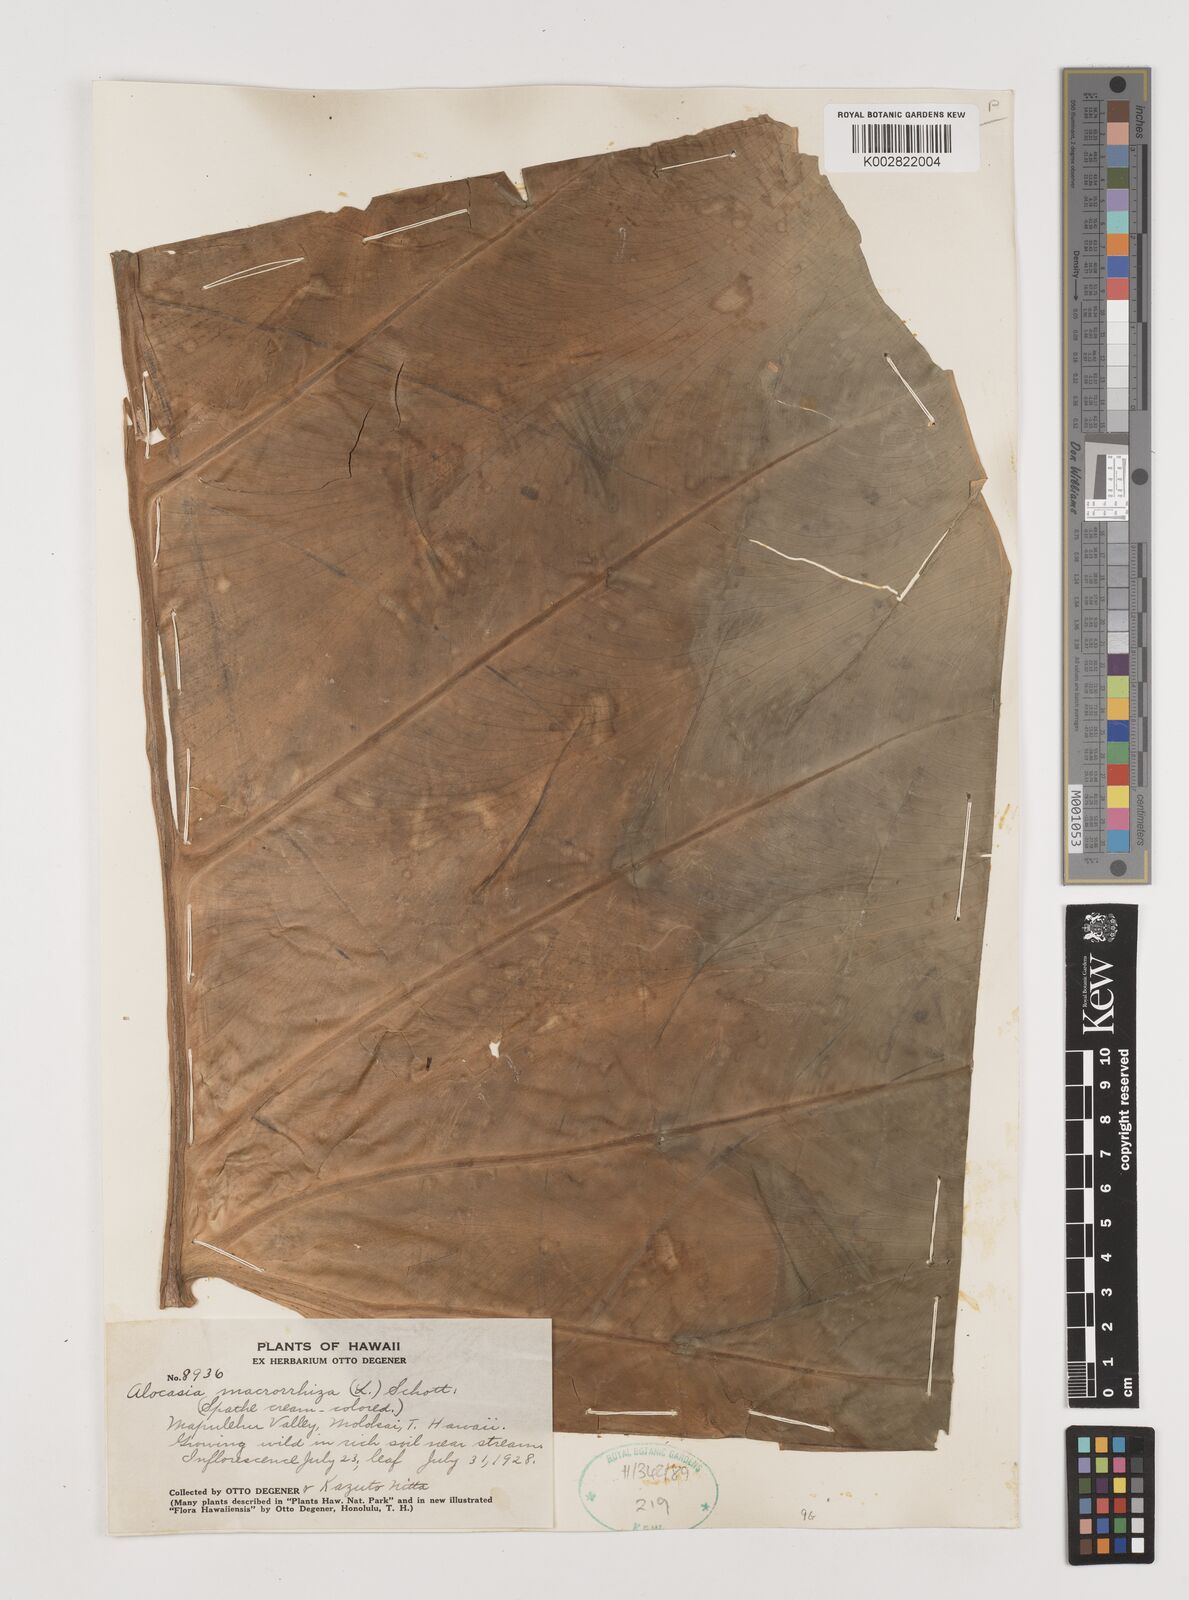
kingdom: Plantae
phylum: Tracheophyta
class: Liliopsida
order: Alismatales
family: Araceae
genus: Alocasia
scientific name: Alocasia macrorrhizos
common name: Giant taro
